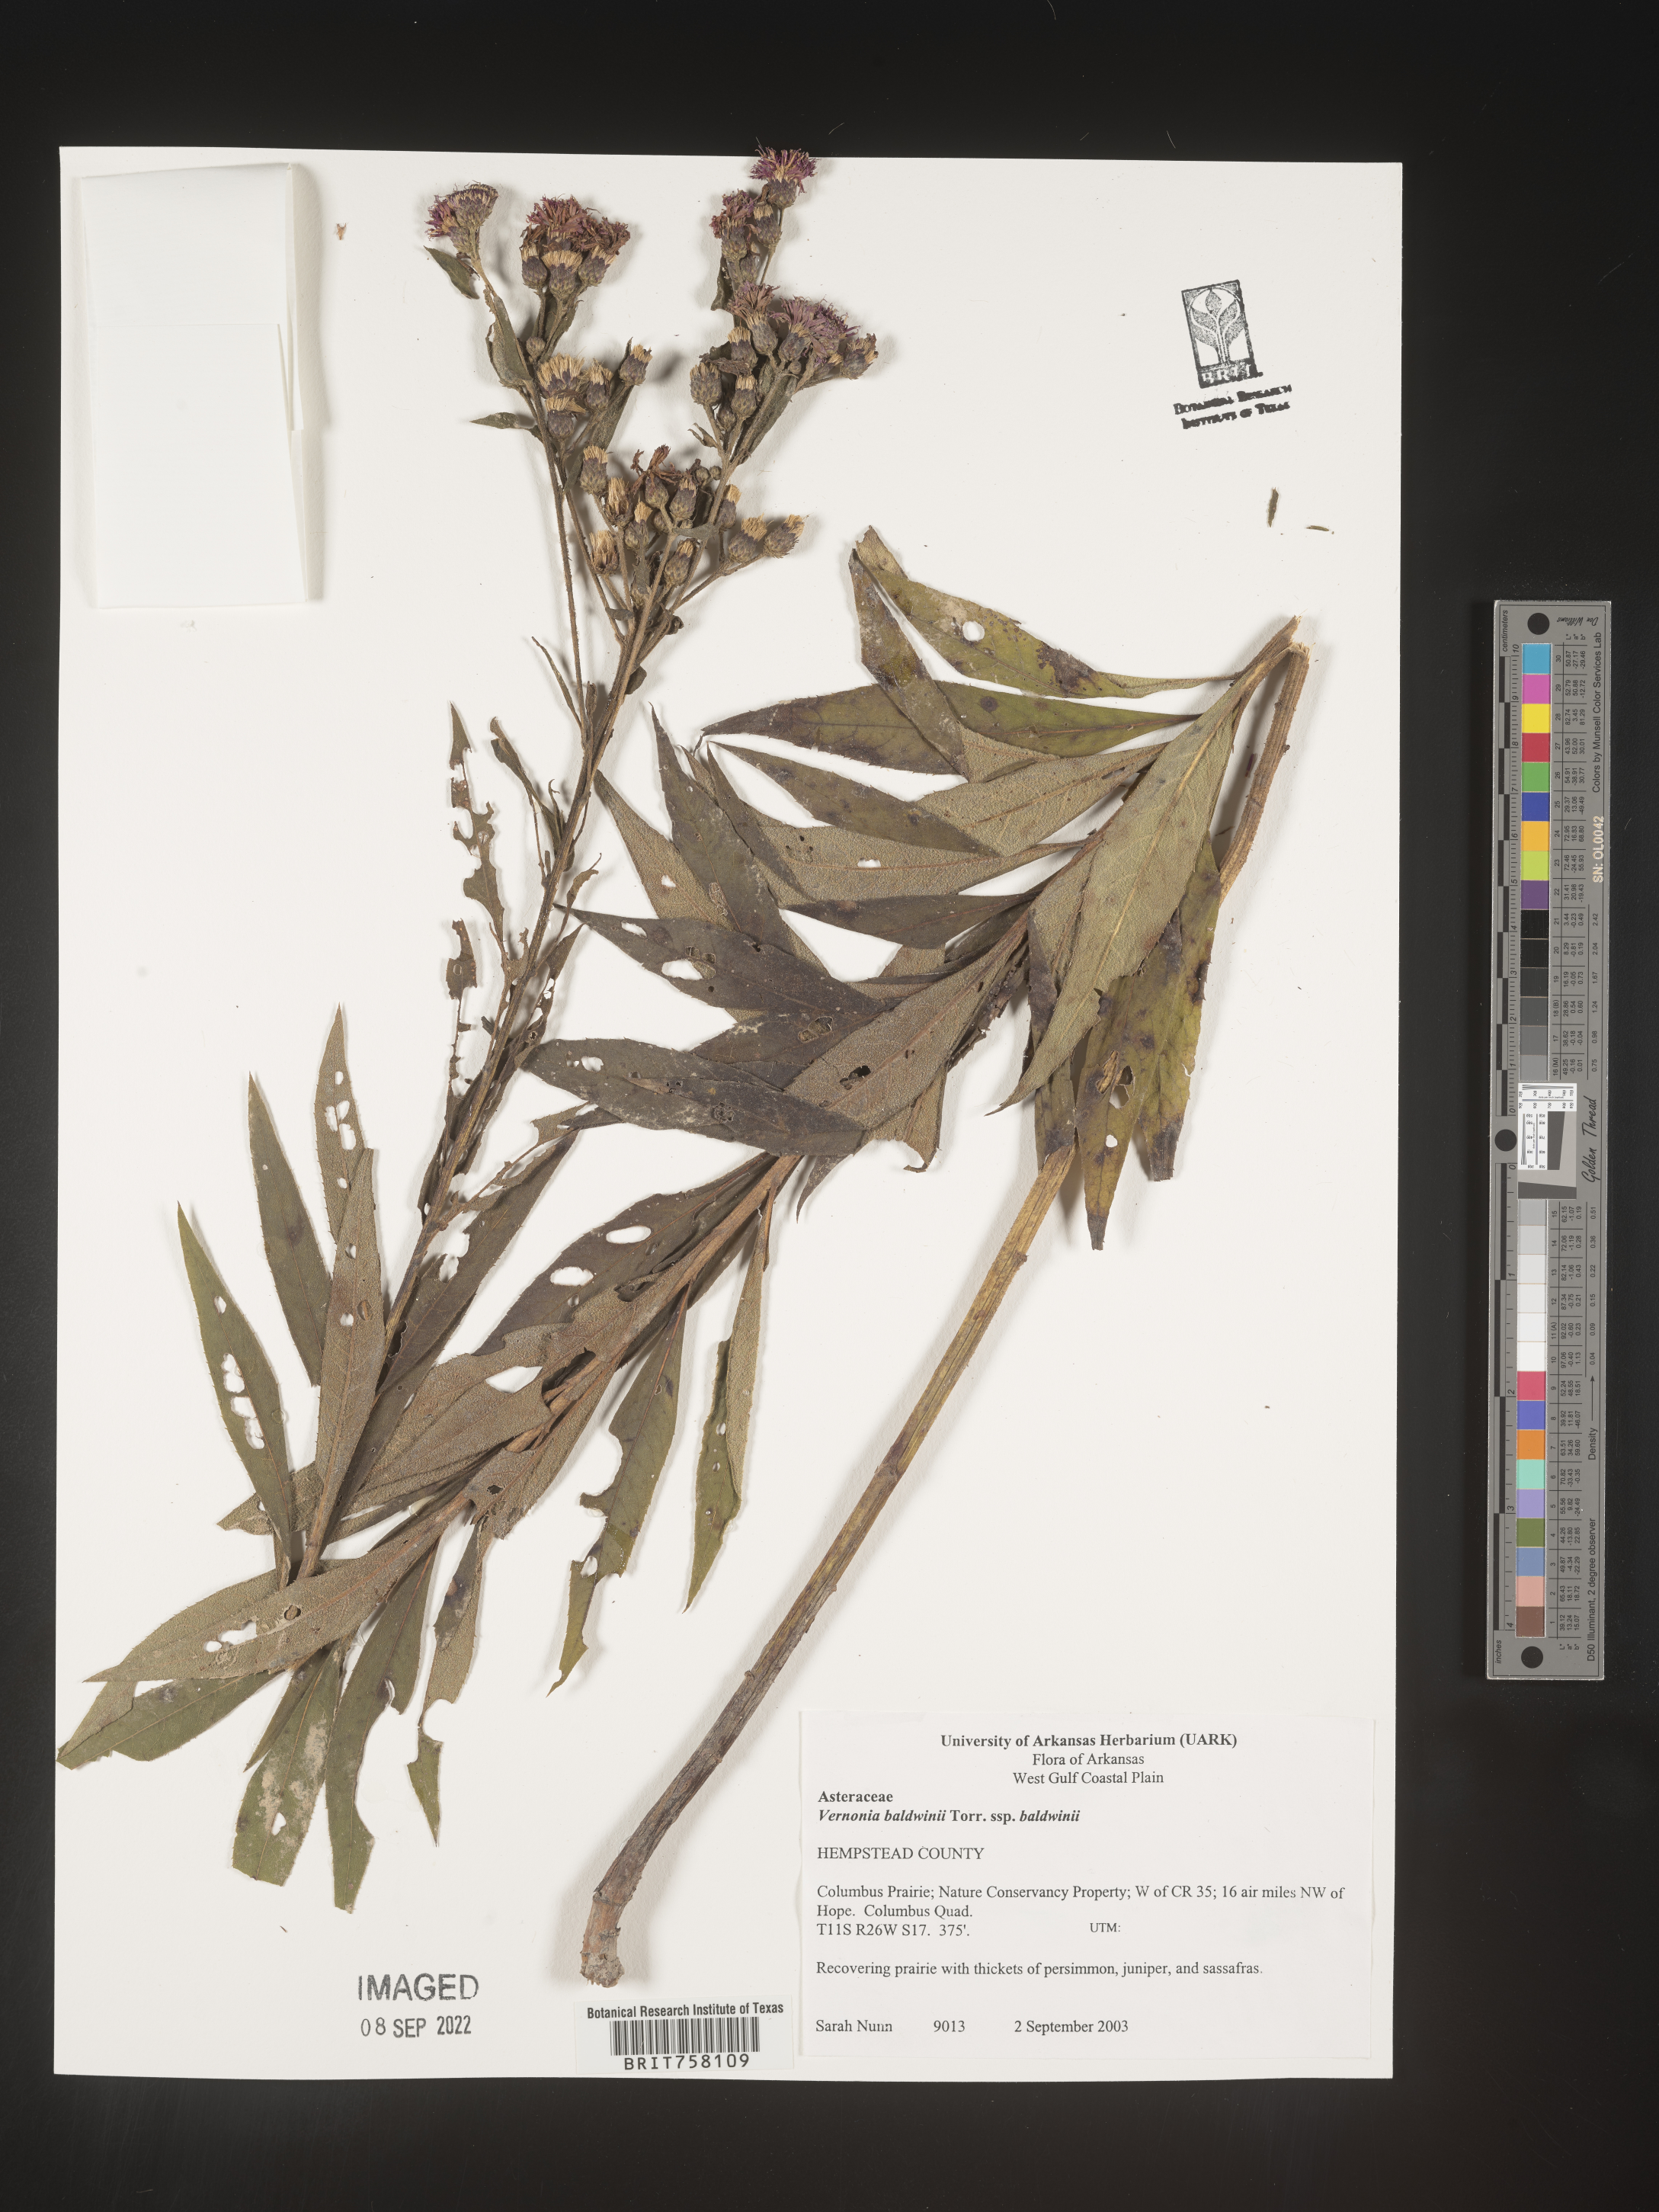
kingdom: Plantae
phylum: Tracheophyta
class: Magnoliopsida
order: Asterales
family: Asteraceae
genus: Vernonia
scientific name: Vernonia baldwinii
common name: Western ironweed
